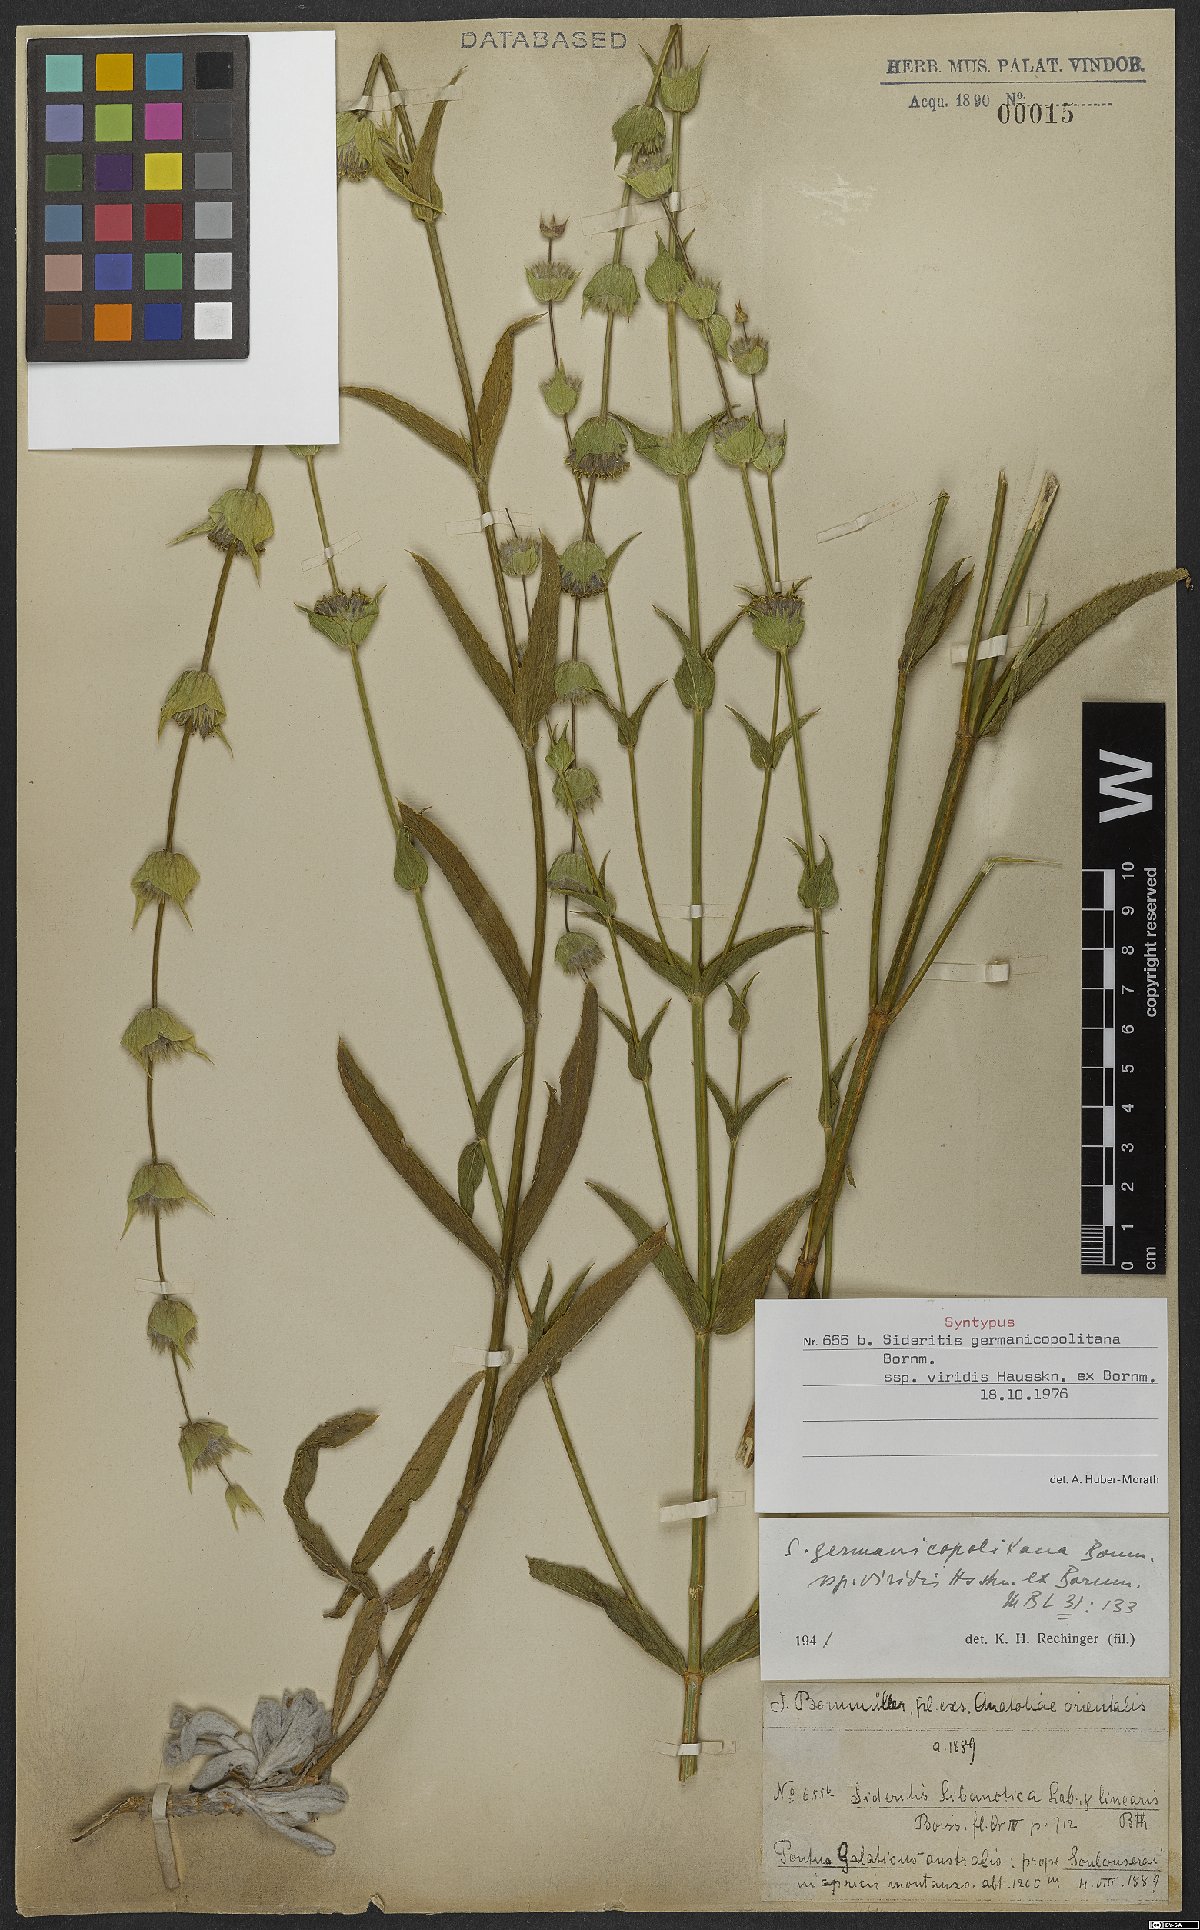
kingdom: Plantae
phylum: Tracheophyta
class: Magnoliopsida
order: Lamiales
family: Lamiaceae
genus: Sideritis
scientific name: Sideritis germanicopolitana
